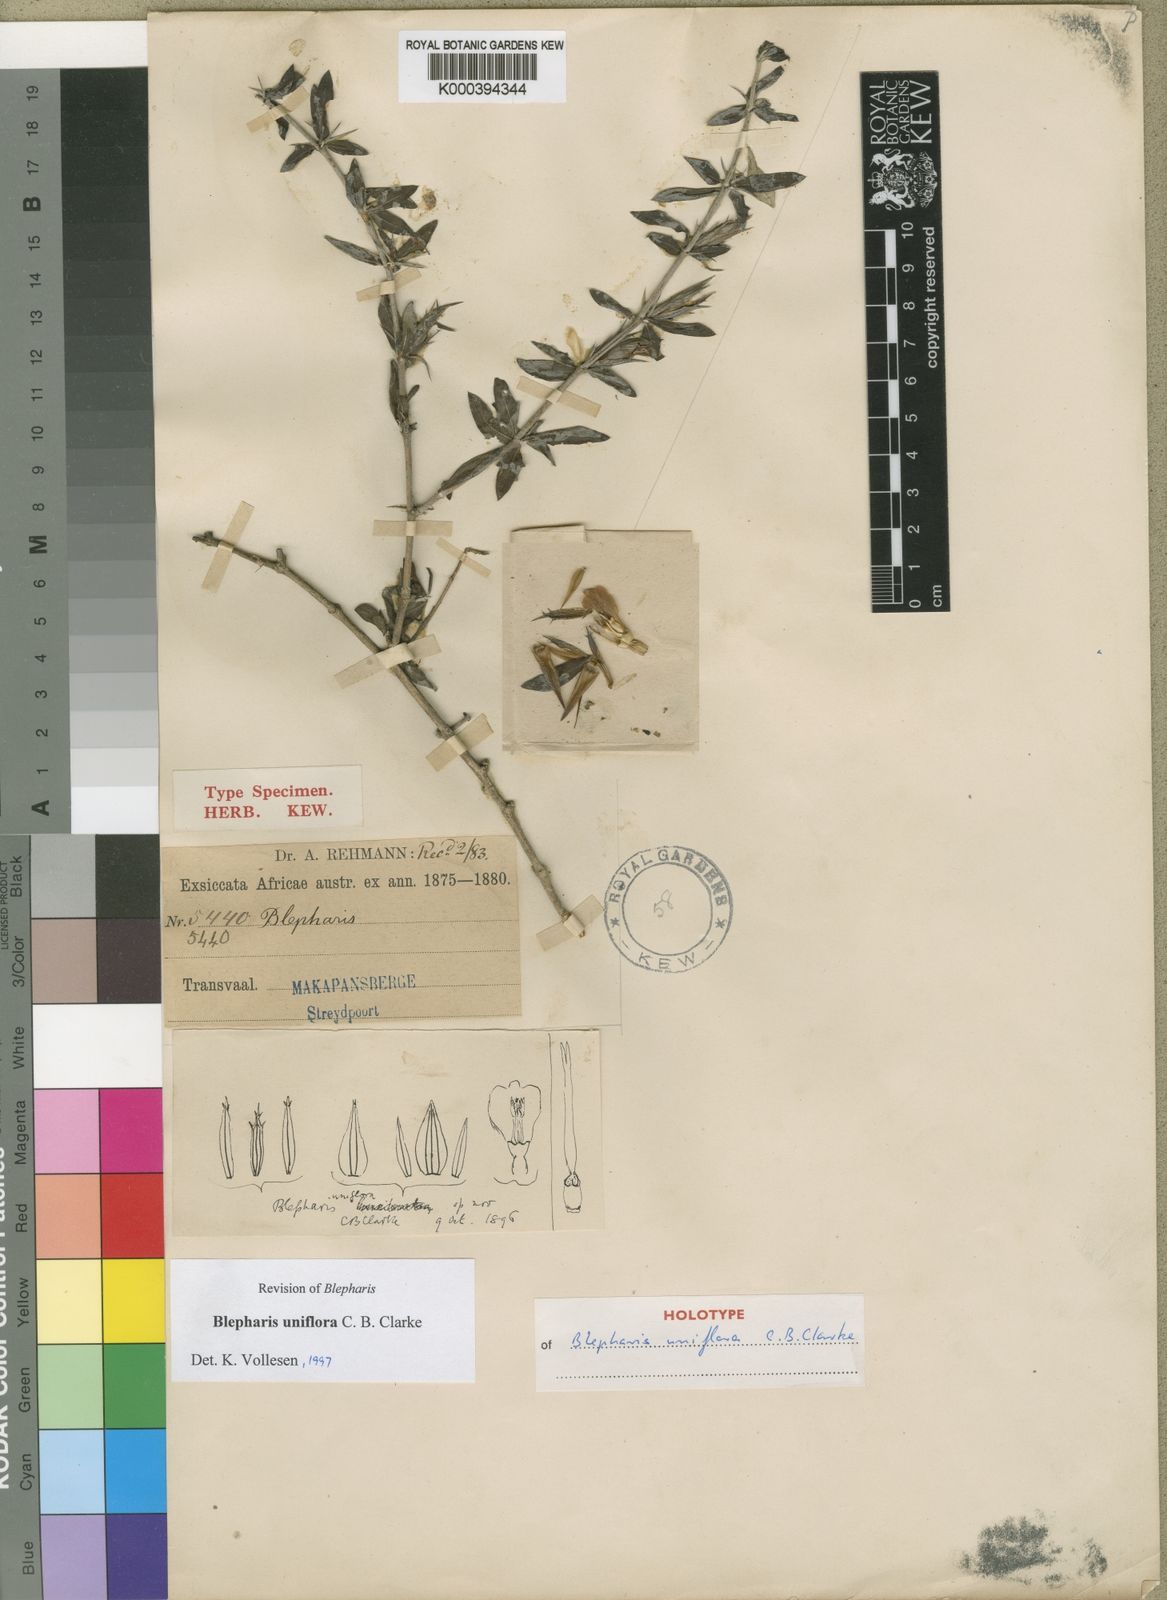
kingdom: Plantae
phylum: Tracheophyta
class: Magnoliopsida
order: Lamiales
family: Acanthaceae
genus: Blepharis
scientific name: Blepharis uniflora
